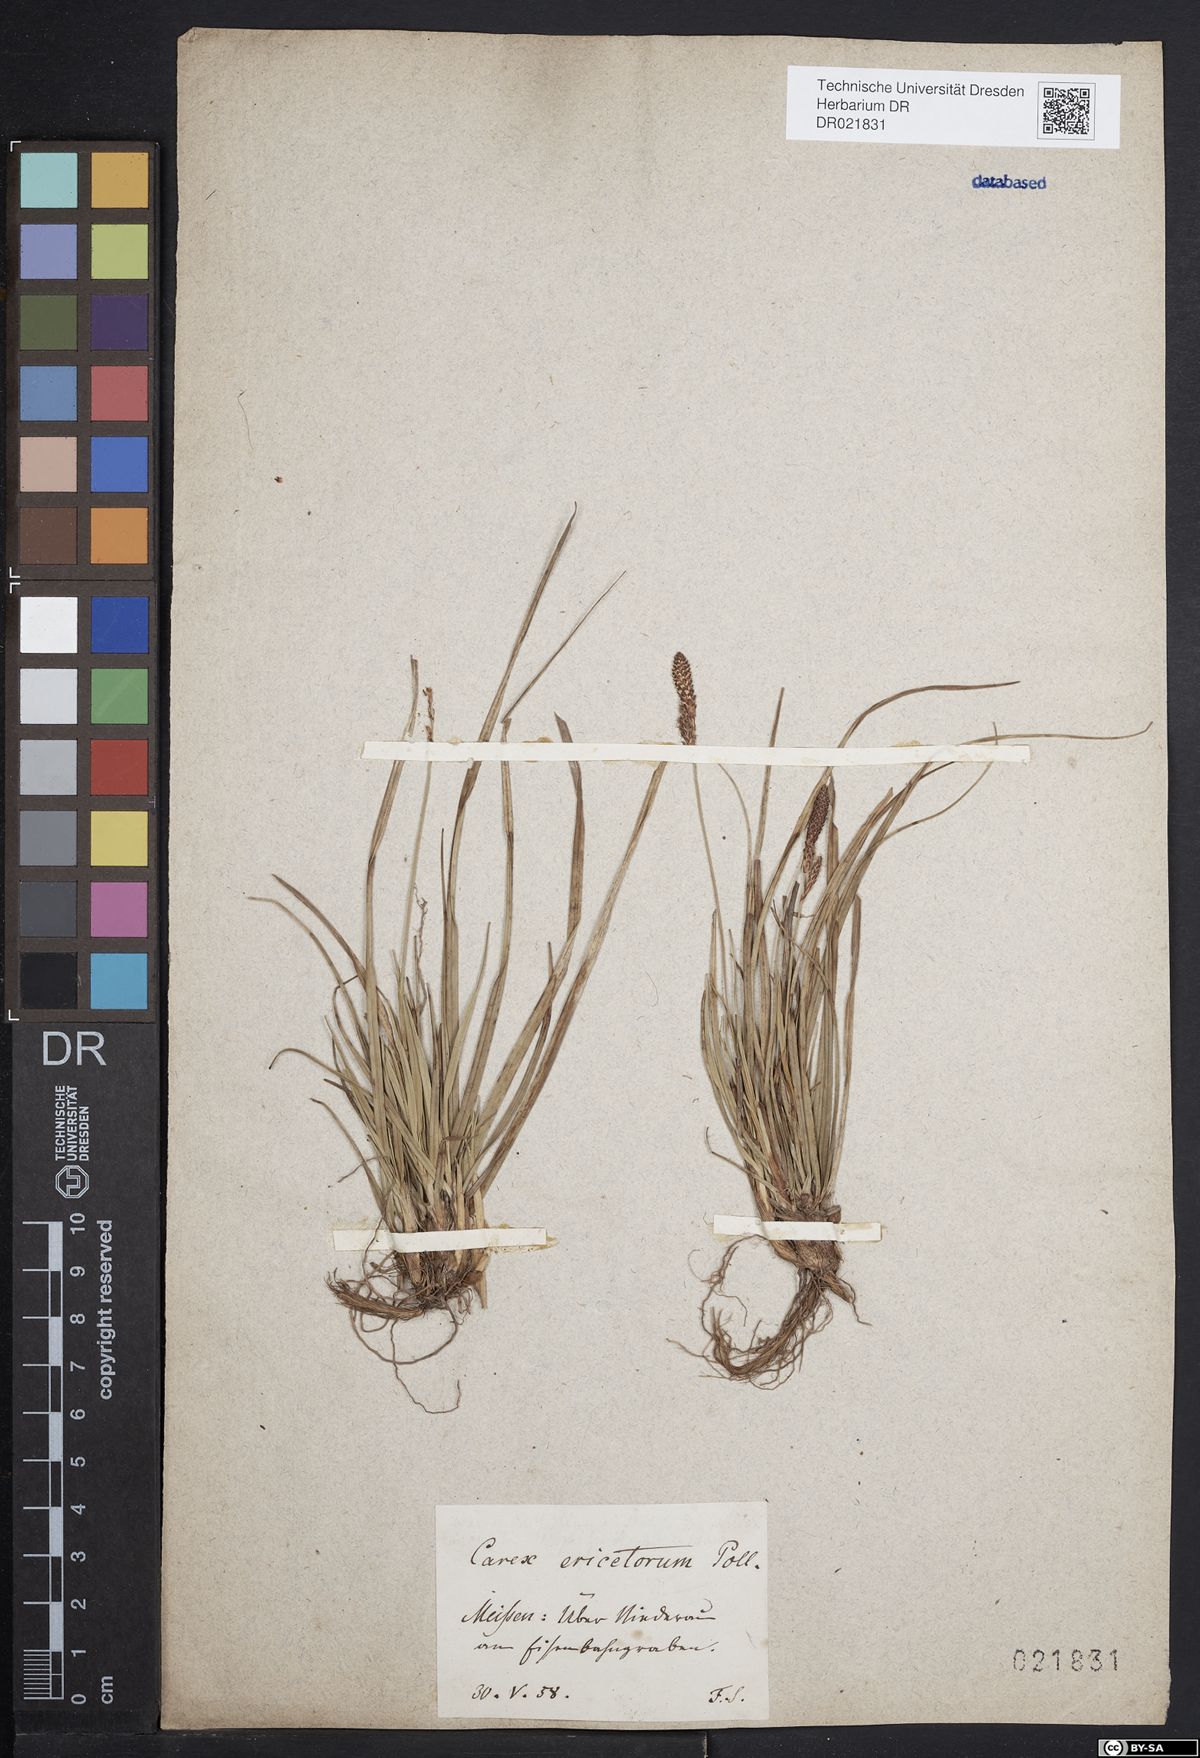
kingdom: Plantae
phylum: Tracheophyta
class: Liliopsida
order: Poales
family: Cyperaceae
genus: Carex
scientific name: Carex ericetorum
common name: Rare spring-sedge
